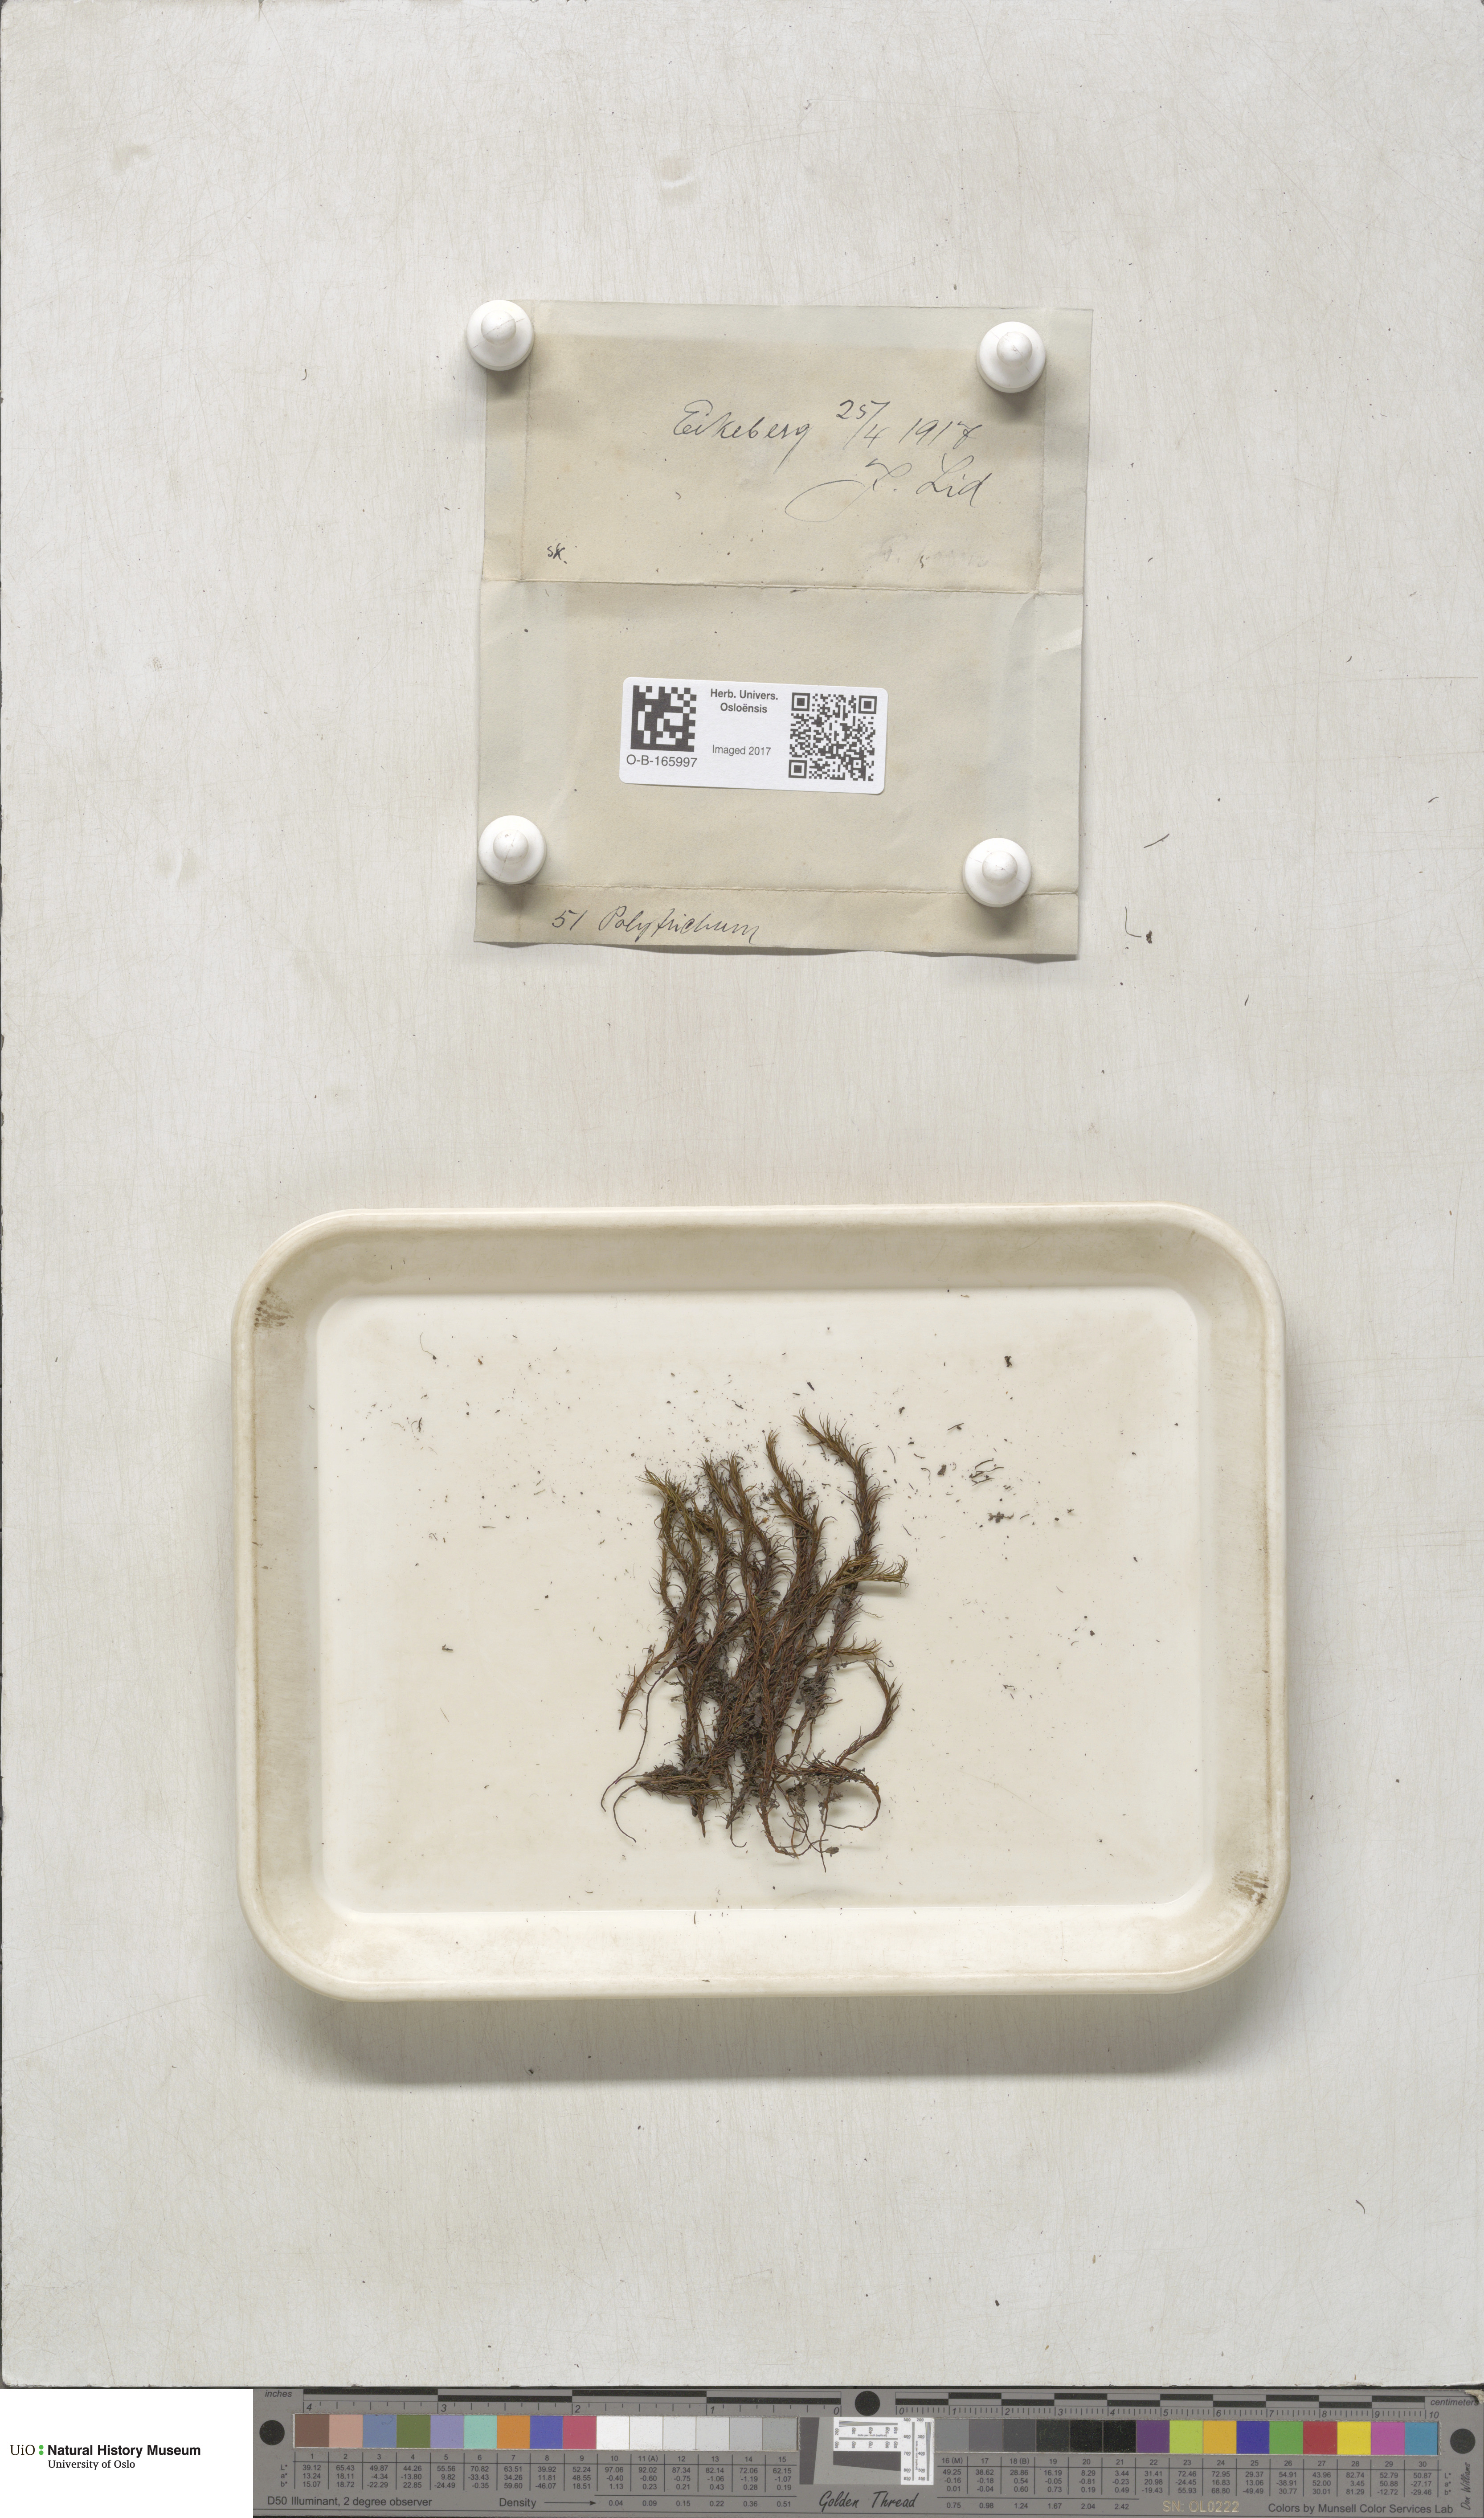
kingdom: Plantae
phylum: Bryophyta
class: Polytrichopsida
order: Polytrichales
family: Polytrichaceae
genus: Polytrichum
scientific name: Polytrichum
